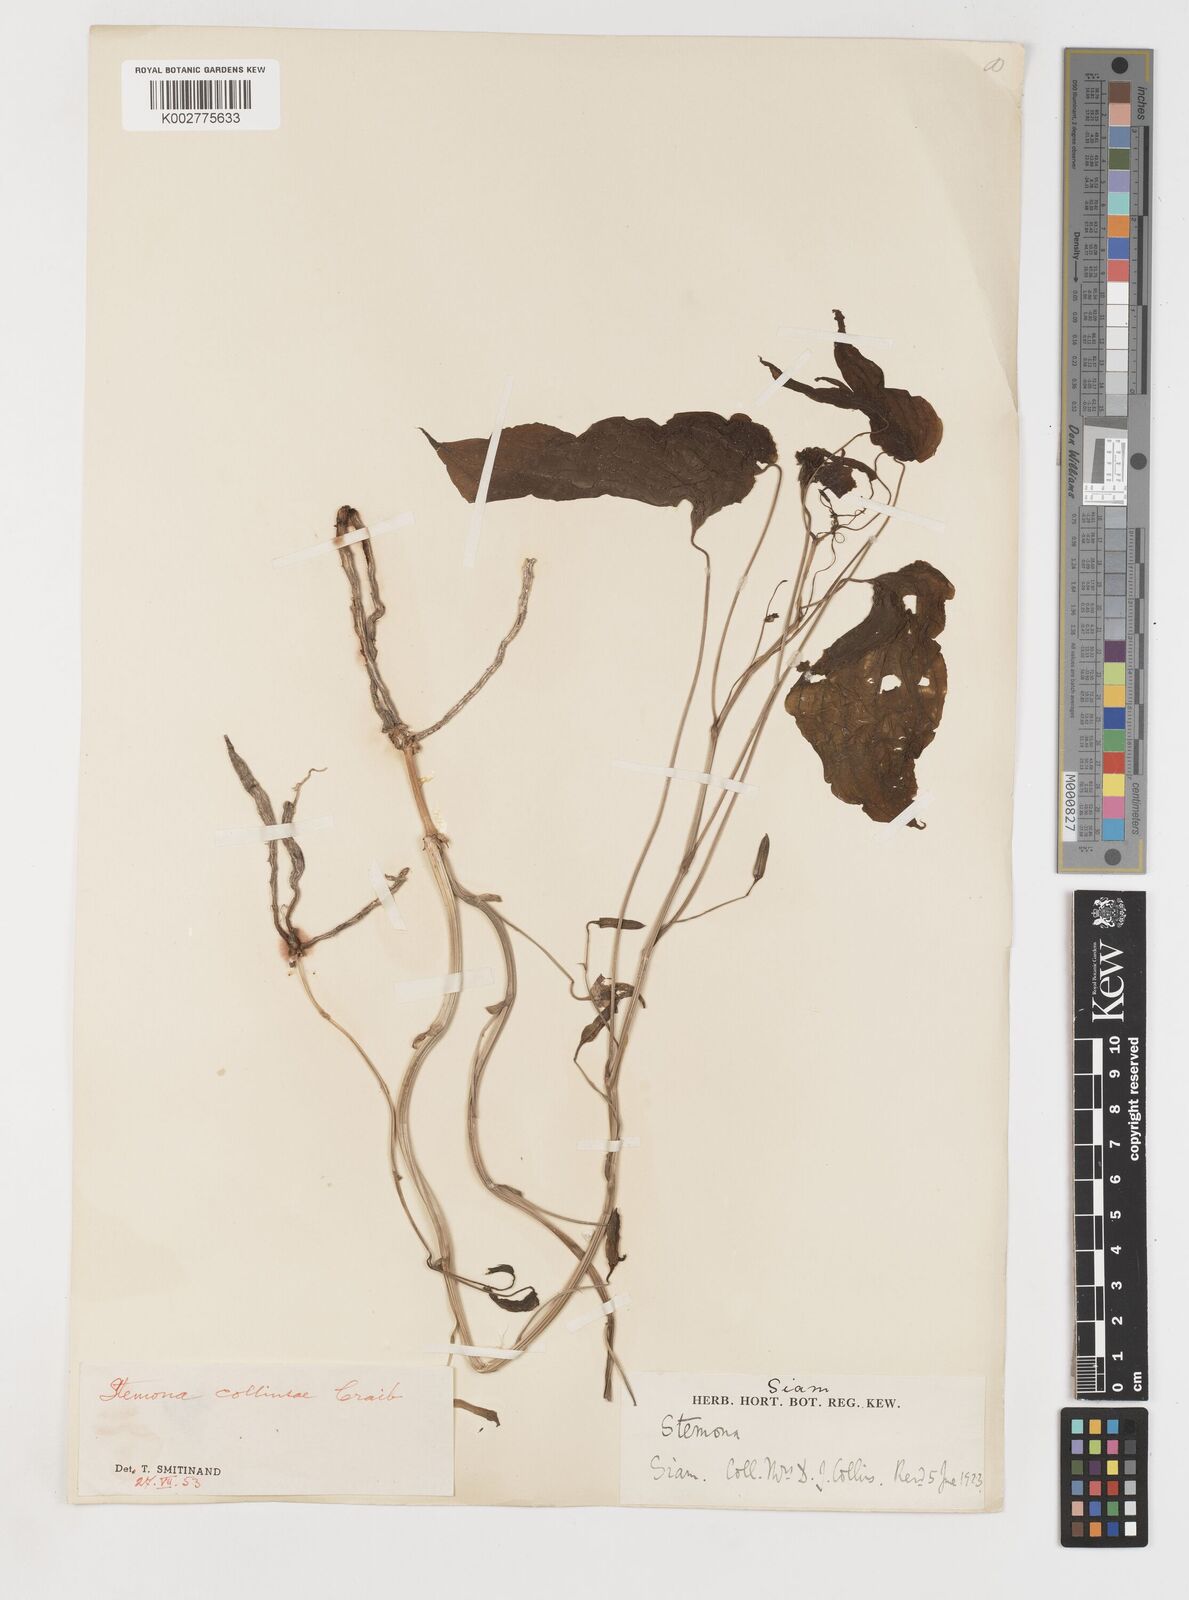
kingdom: Plantae
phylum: Tracheophyta
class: Liliopsida
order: Pandanales
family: Stemonaceae
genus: Stemona
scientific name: Stemona collinsiae
